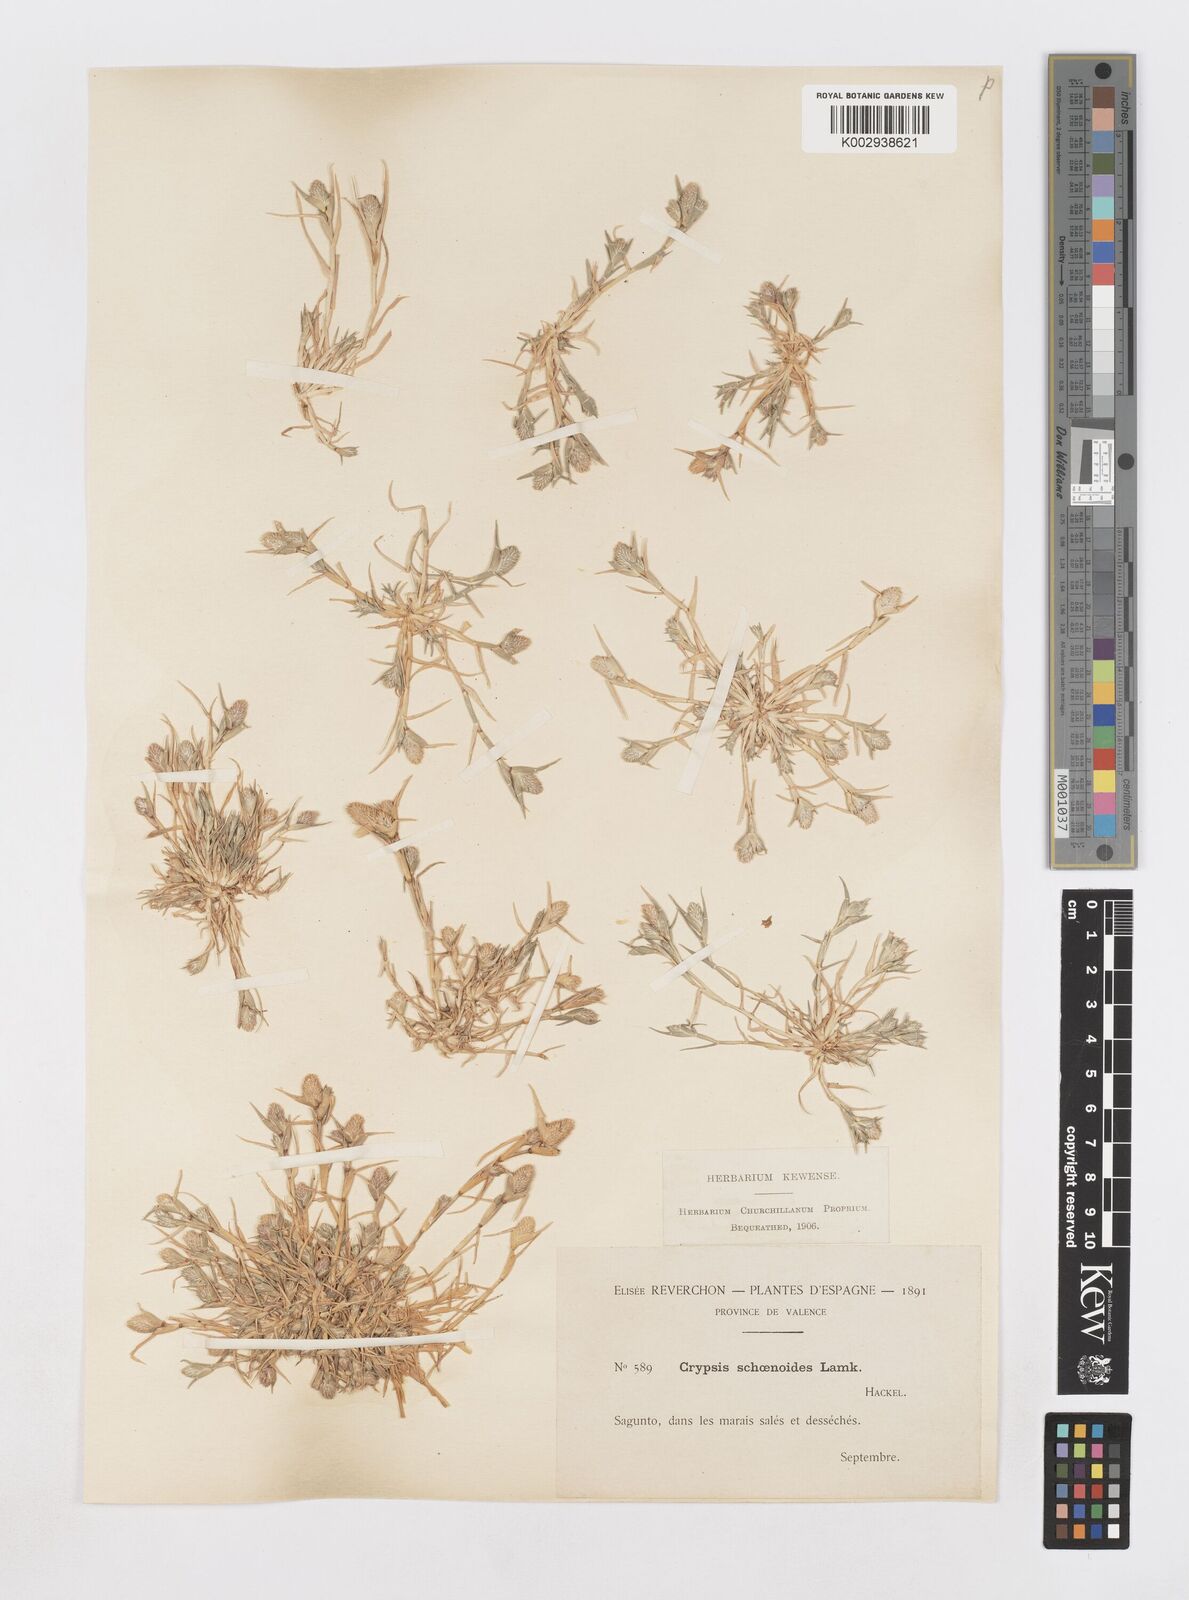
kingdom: Plantae
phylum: Tracheophyta
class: Liliopsida
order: Poales
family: Poaceae
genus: Sporobolus
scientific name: Sporobolus schoenoides
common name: Rush-like timothy
